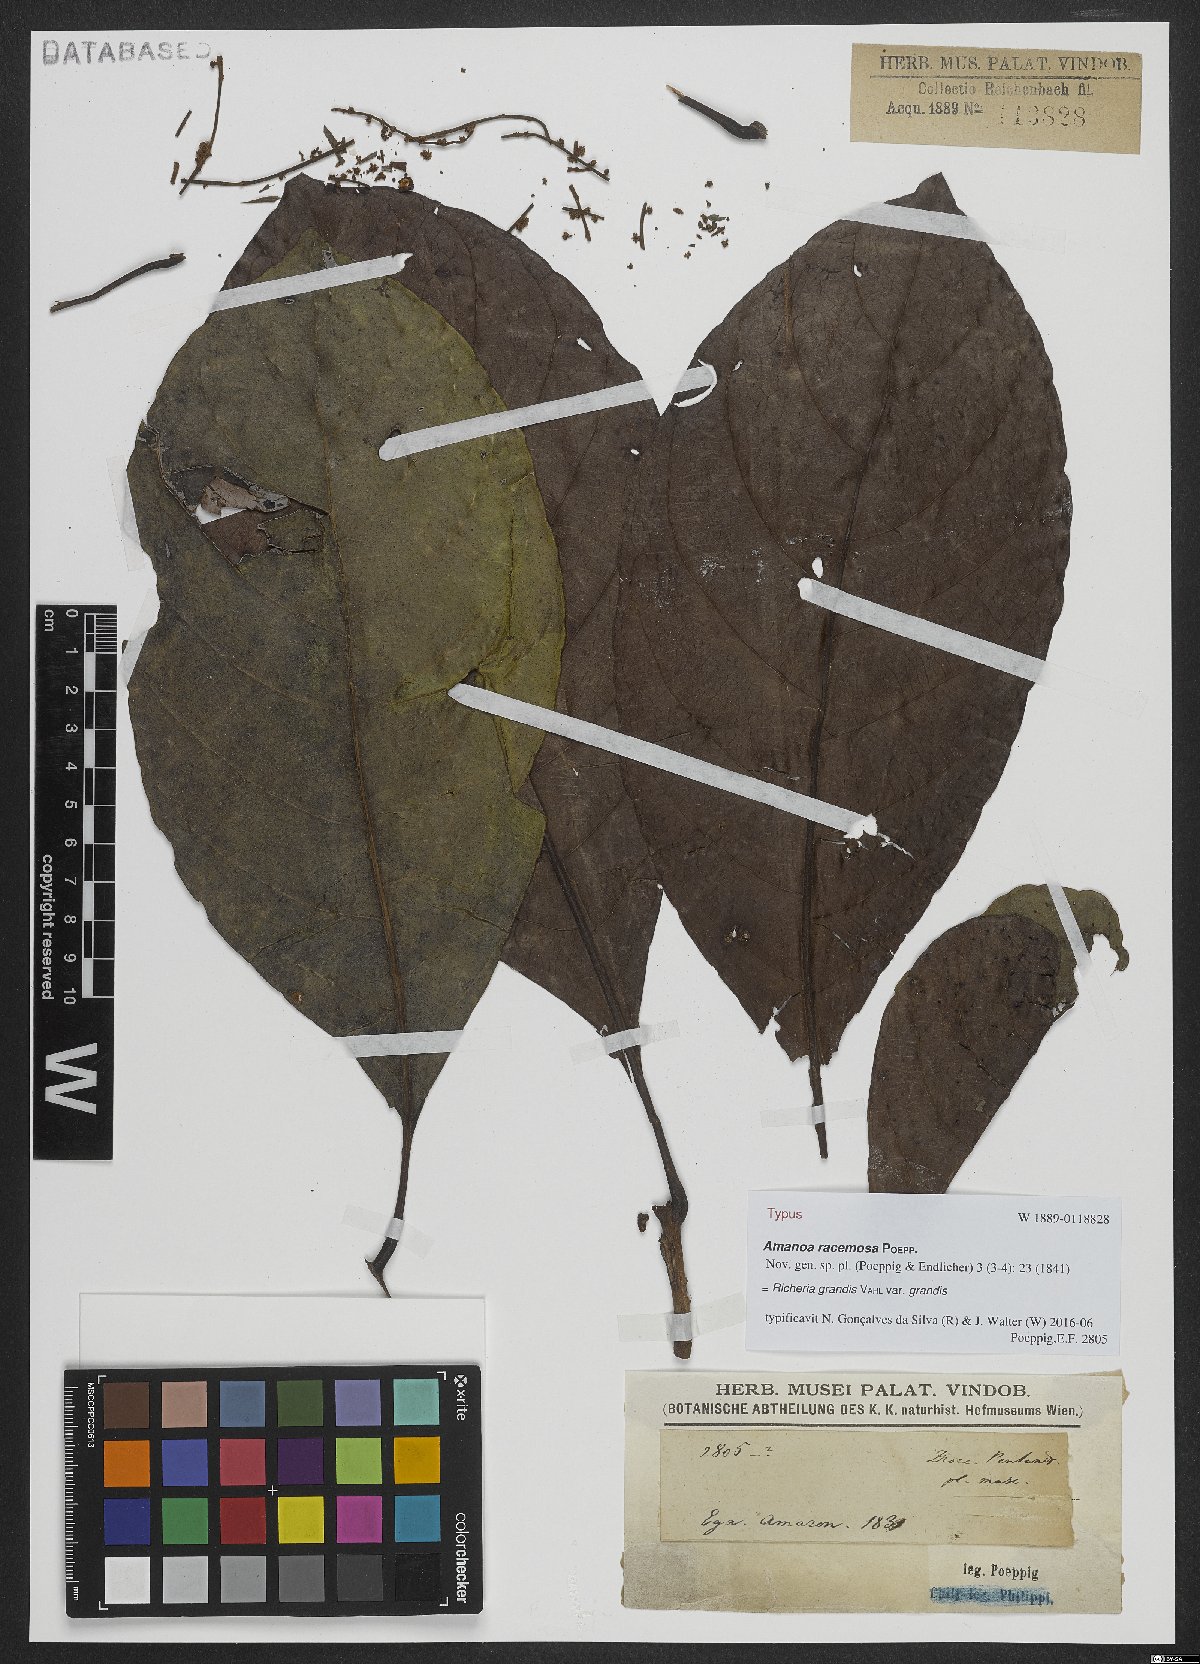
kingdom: Plantae
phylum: Tracheophyta
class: Magnoliopsida
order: Malpighiales
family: Phyllanthaceae
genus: Richeria
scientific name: Richeria grandis
